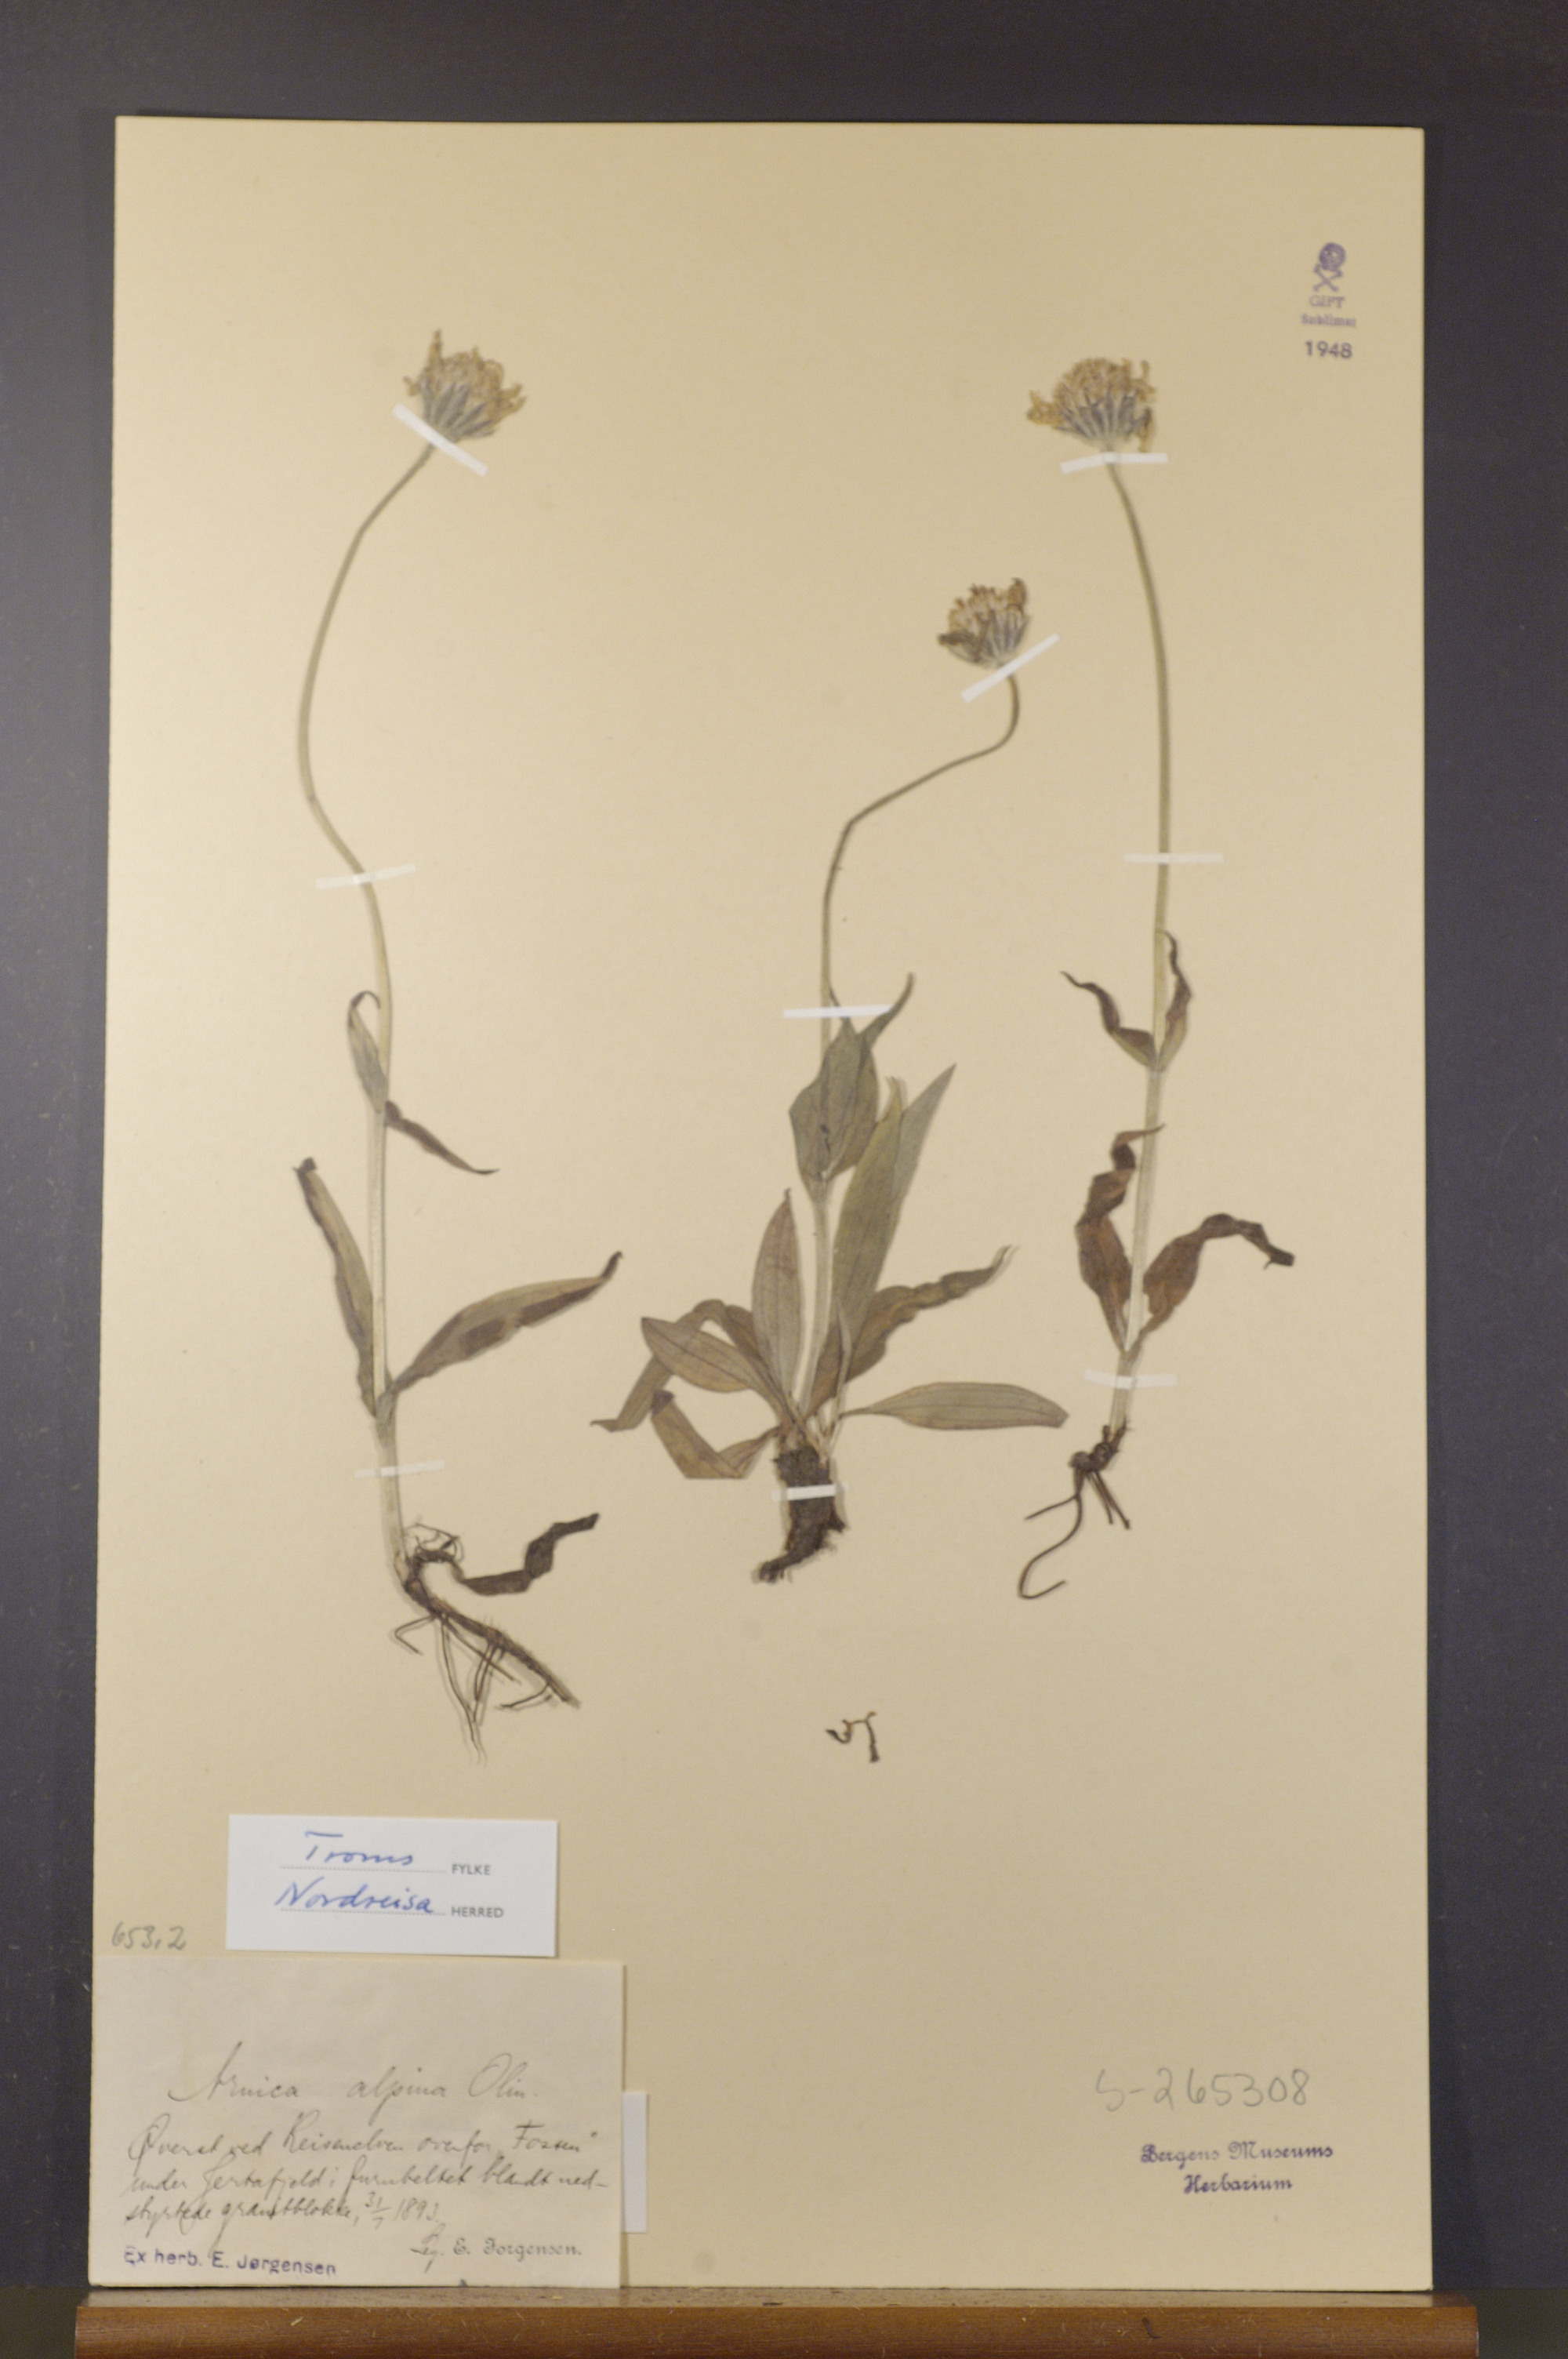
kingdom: Plantae
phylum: Tracheophyta
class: Magnoliopsida
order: Asterales
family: Asteraceae
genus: Arnica
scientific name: Arnica angustifolia
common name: Arctic arnica
